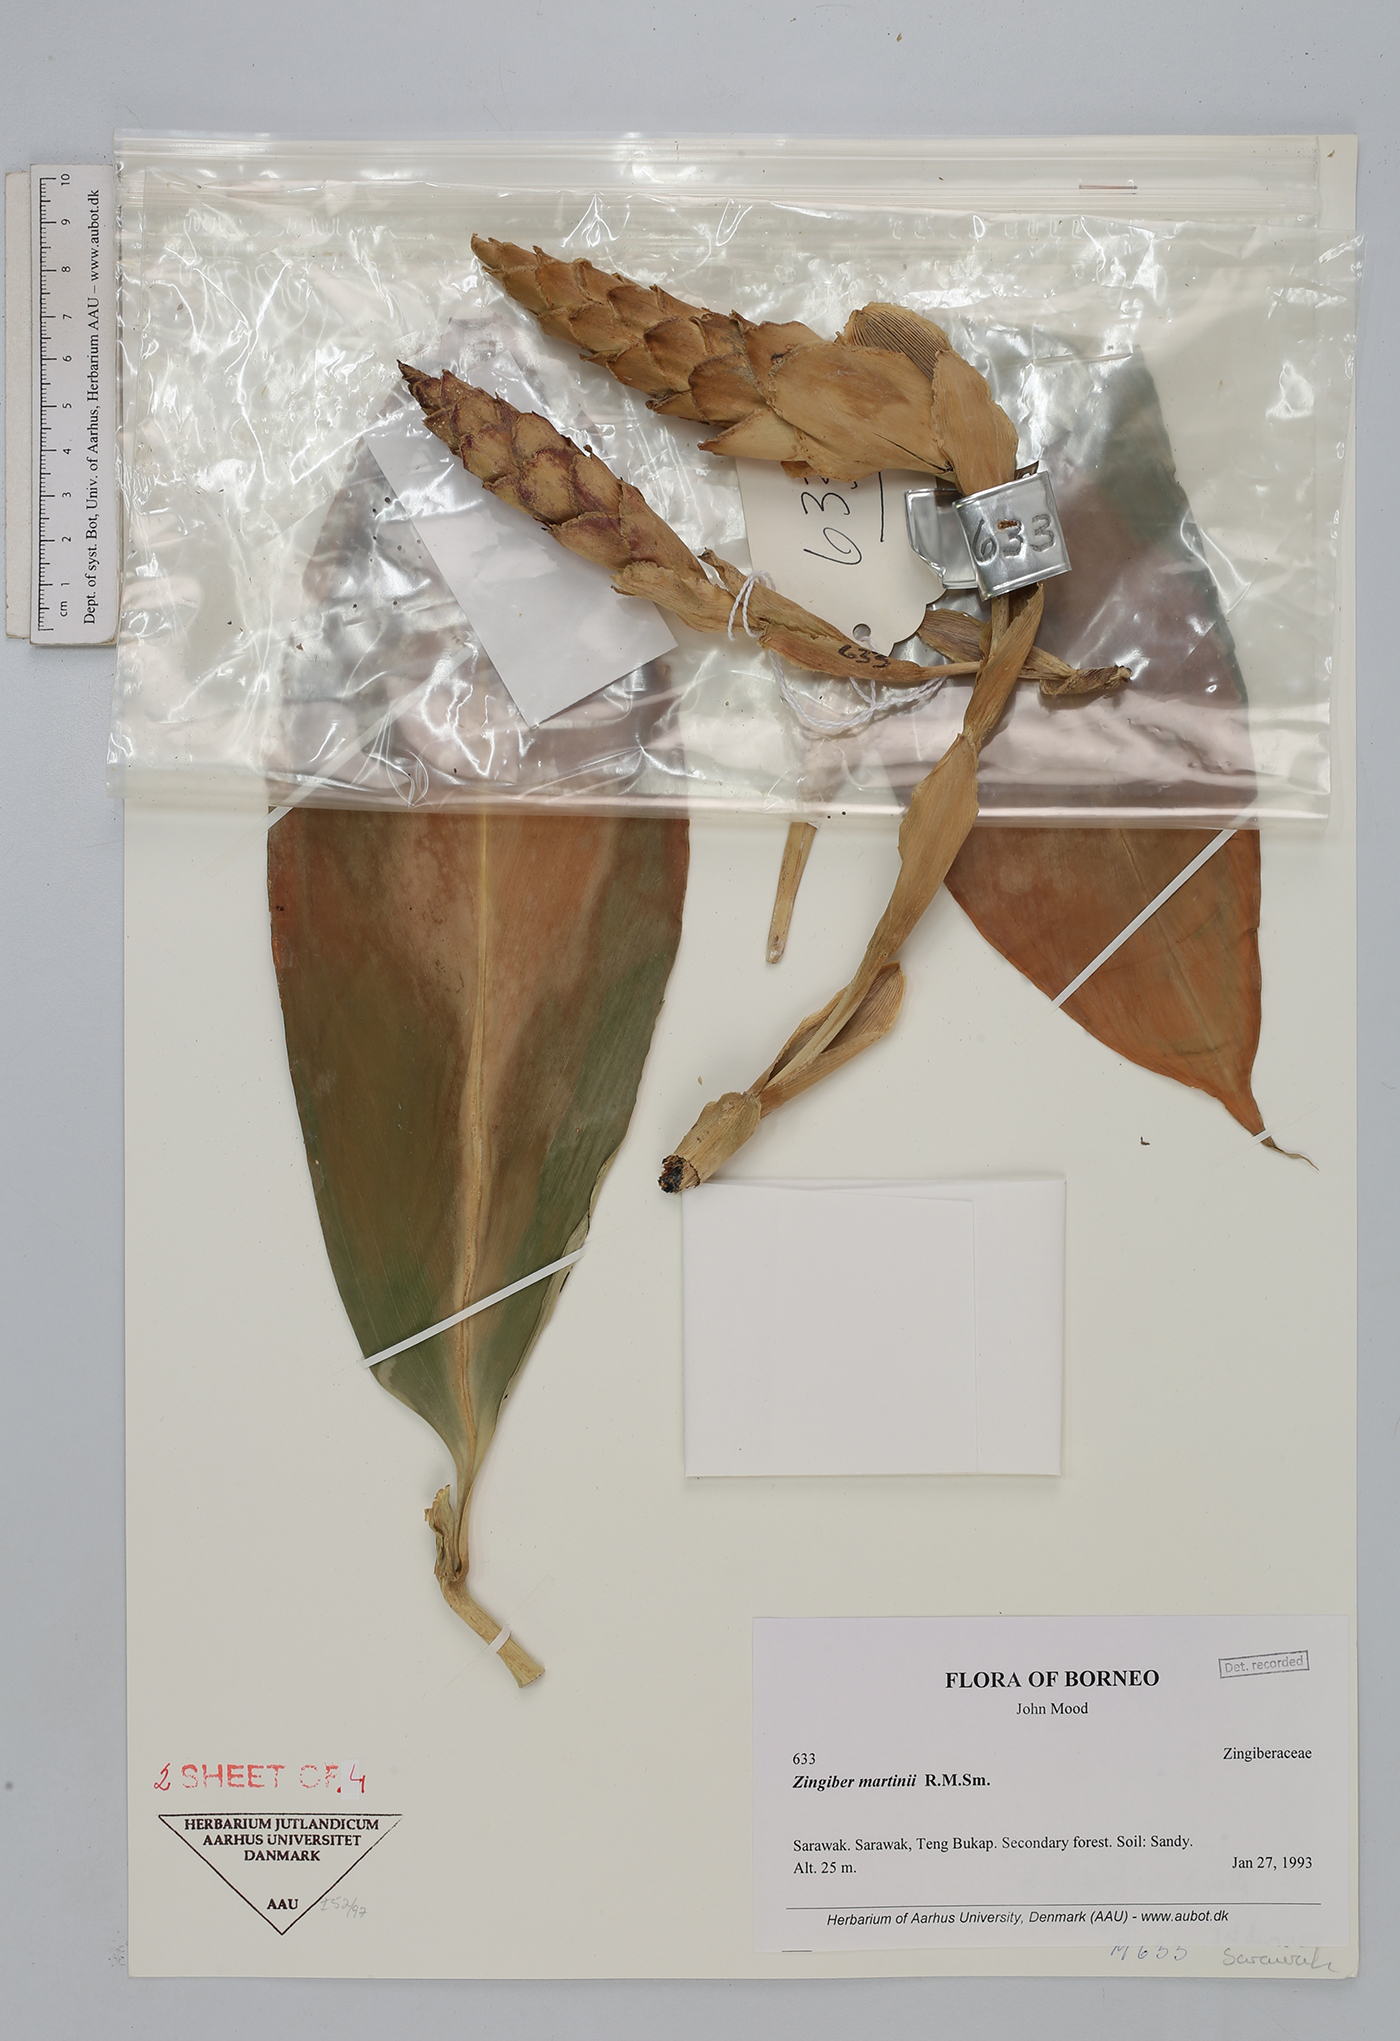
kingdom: Plantae
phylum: Tracheophyta
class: Liliopsida
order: Zingiberales
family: Zingiberaceae
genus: Zingiber
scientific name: Zingiber martini
